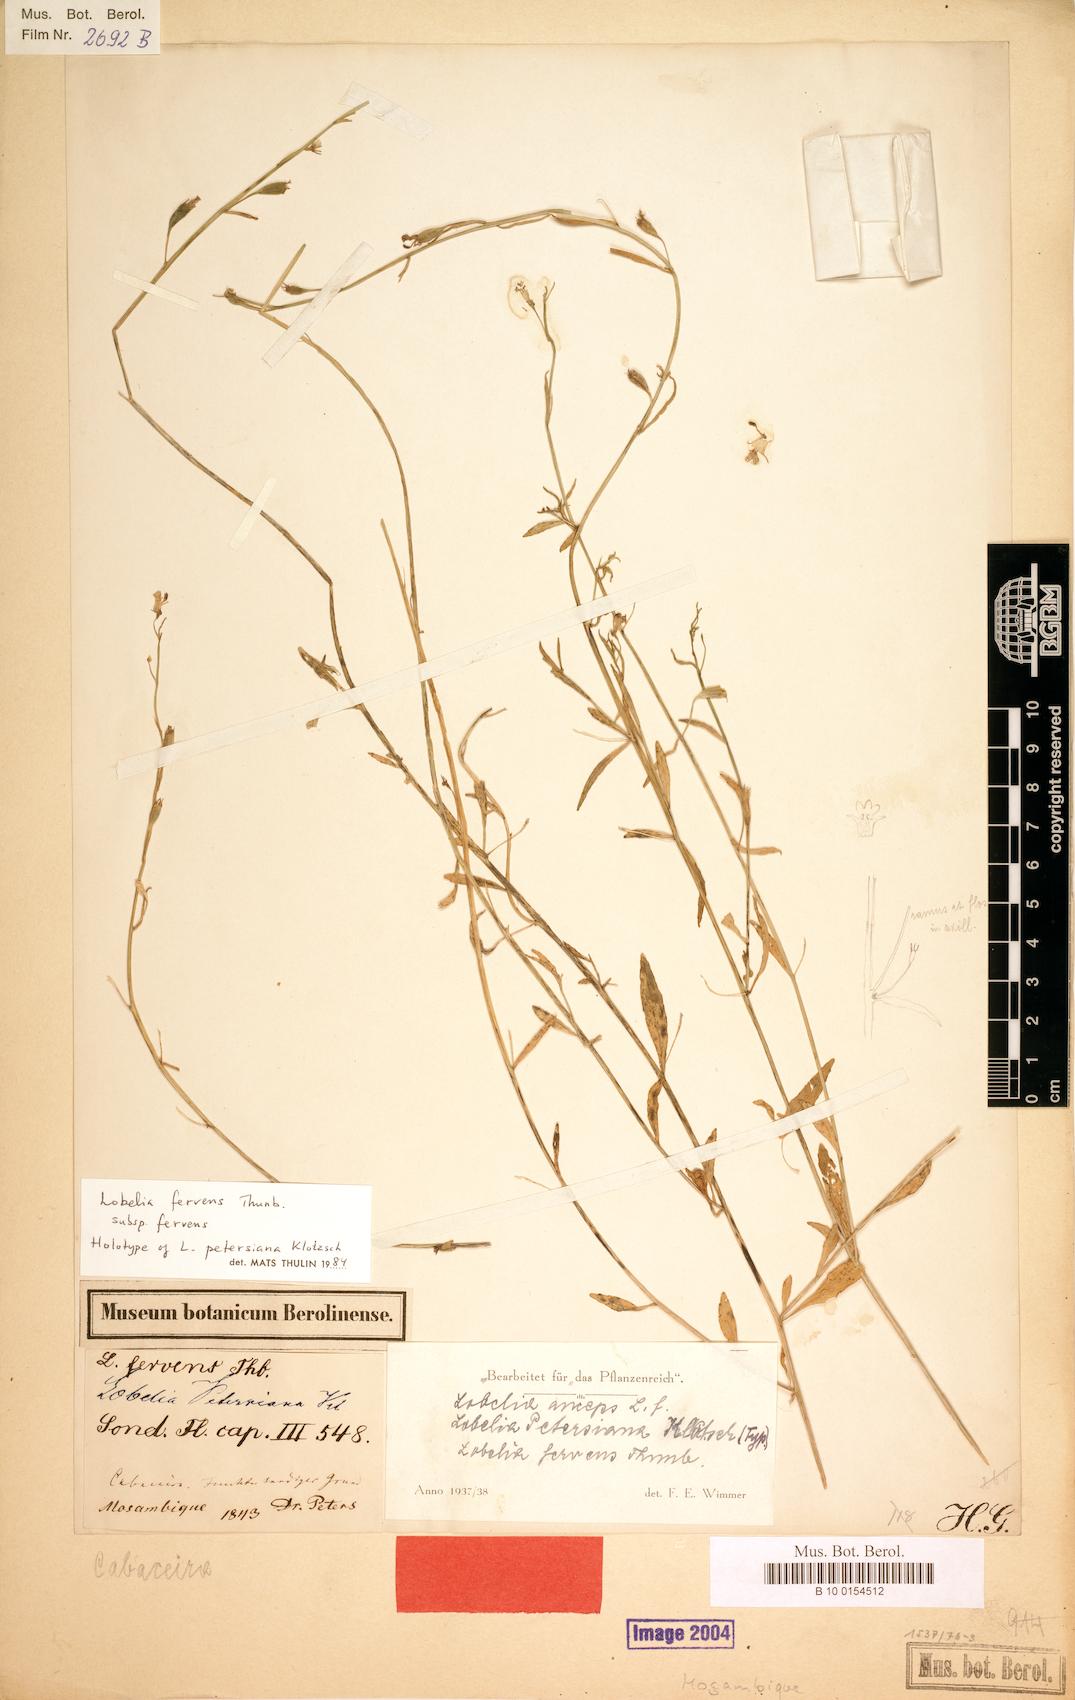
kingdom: Plantae
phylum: Tracheophyta
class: Magnoliopsida
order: Asterales
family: Campanulaceae
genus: Lobelia
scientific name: Lobelia fervens
